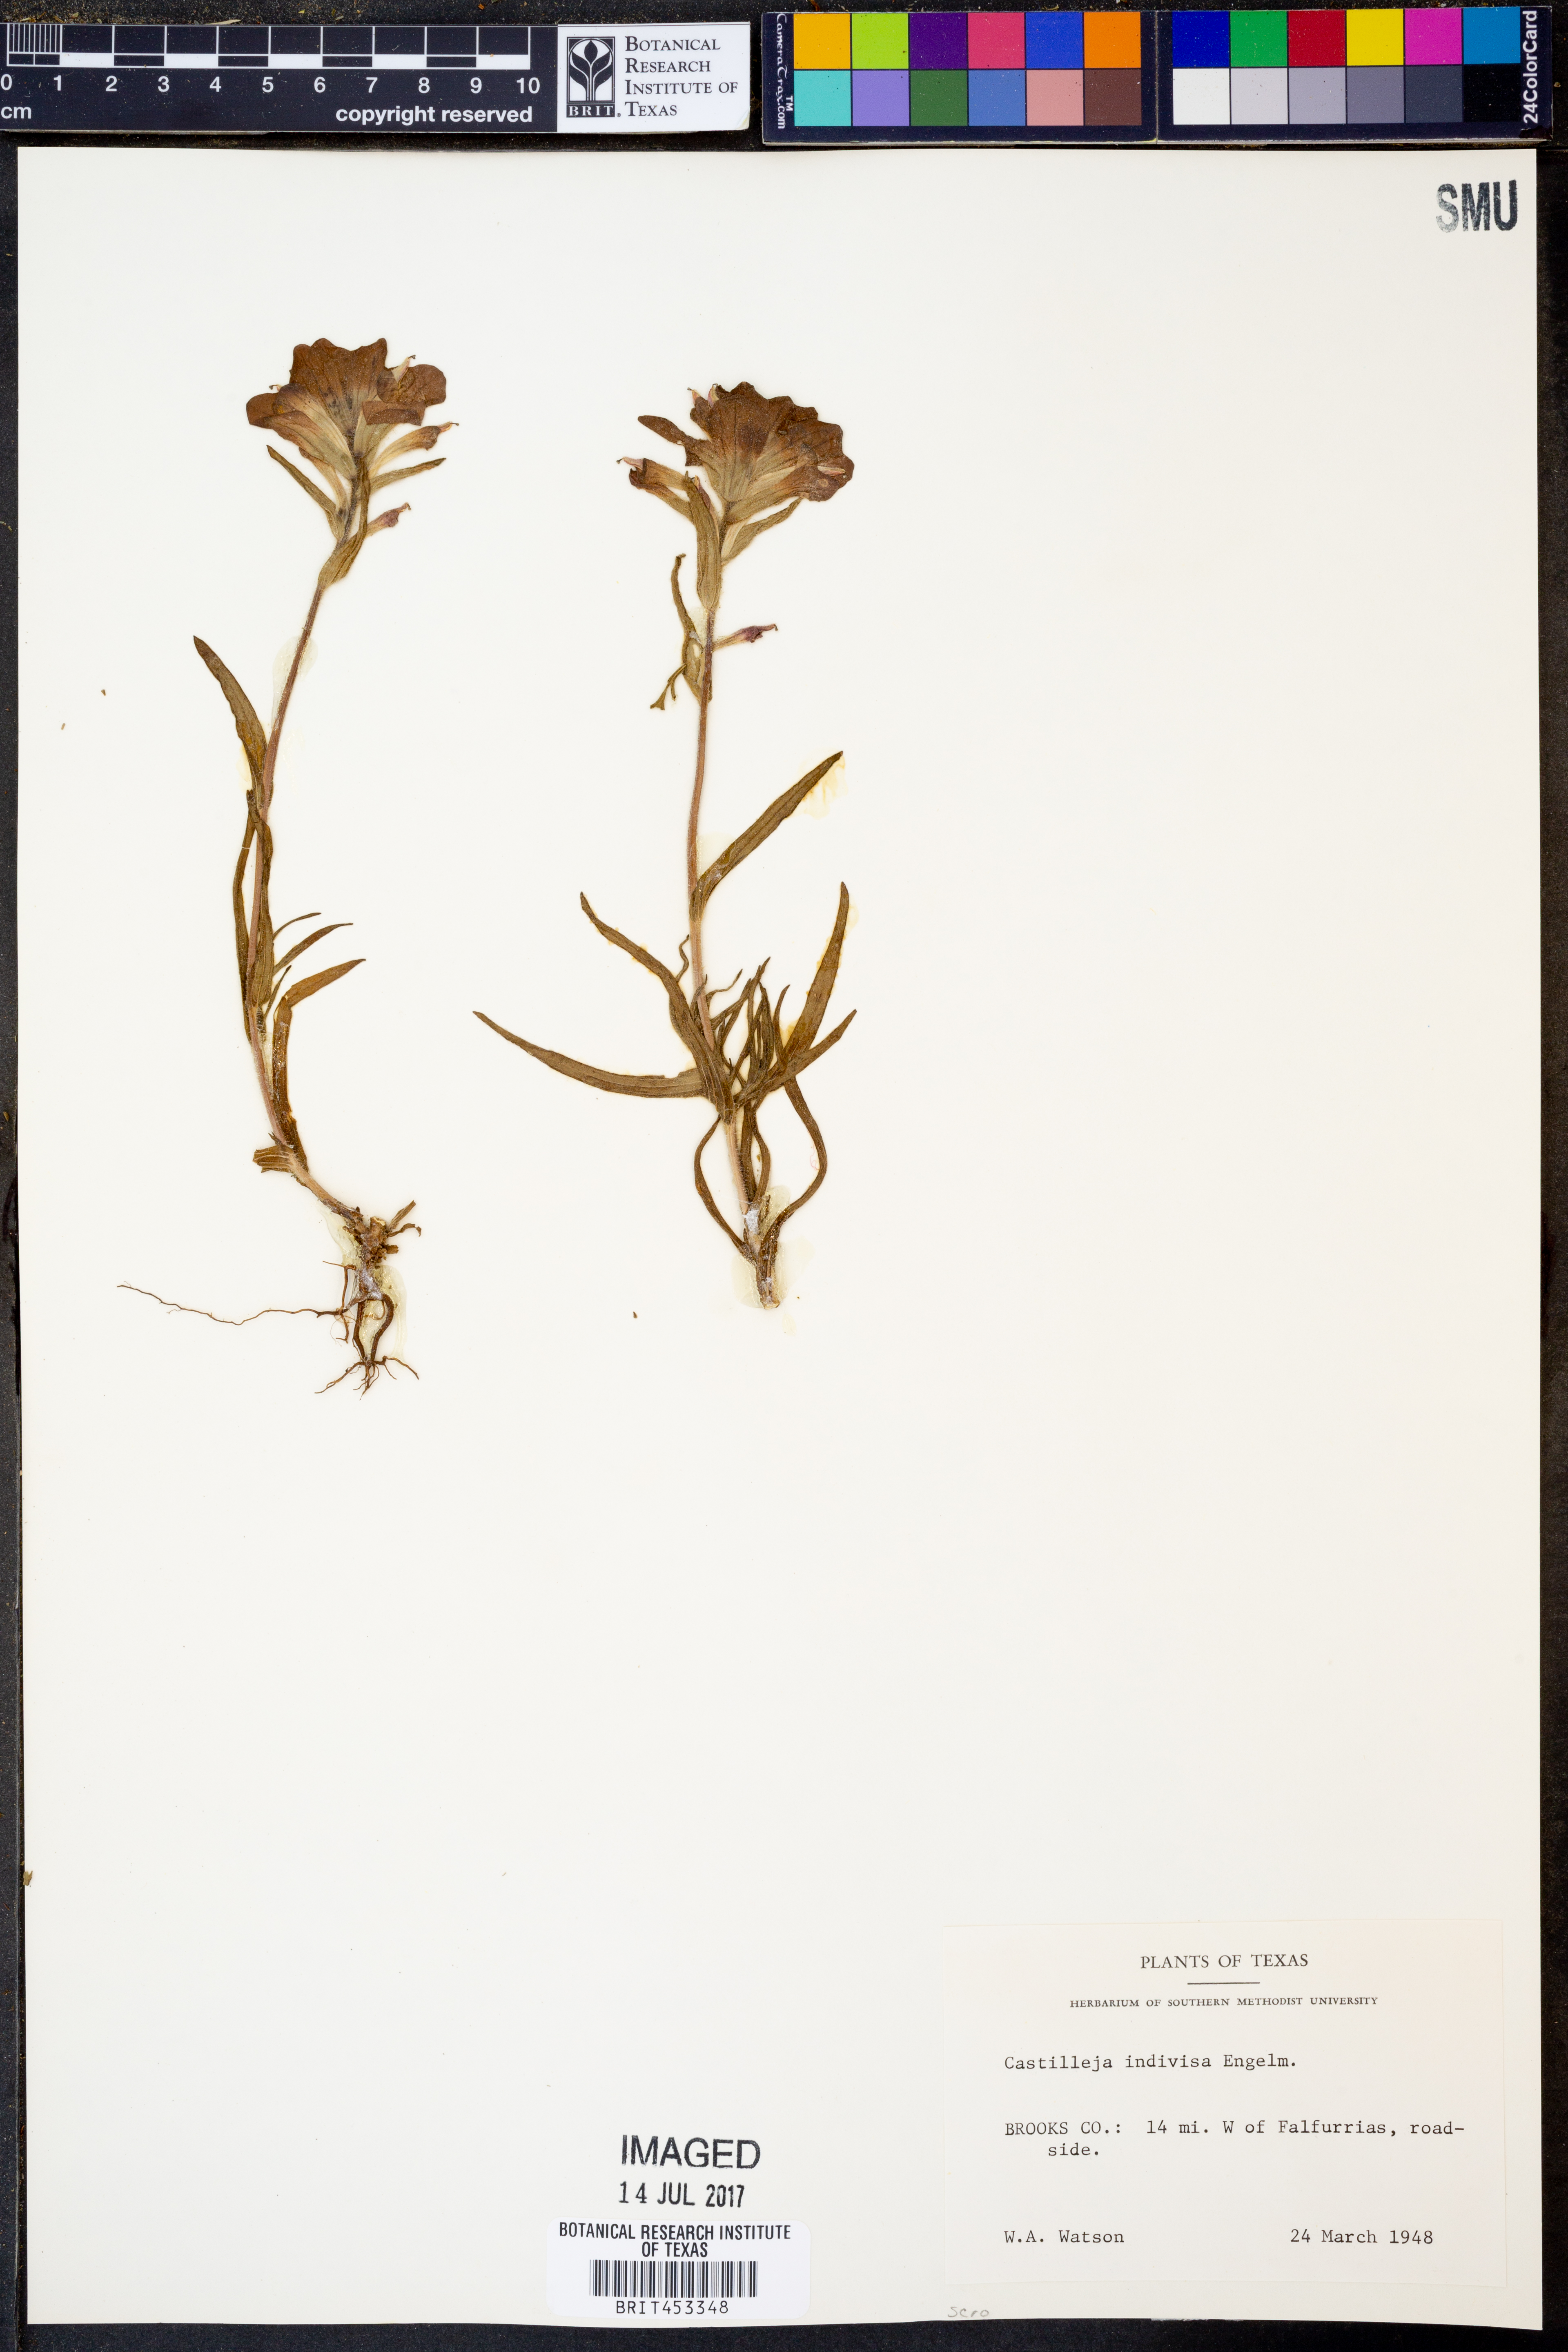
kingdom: Plantae
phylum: Tracheophyta
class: Magnoliopsida
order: Lamiales
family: Orobanchaceae
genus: Castilleja
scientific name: Castilleja indivisa
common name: Texas paintbrush
